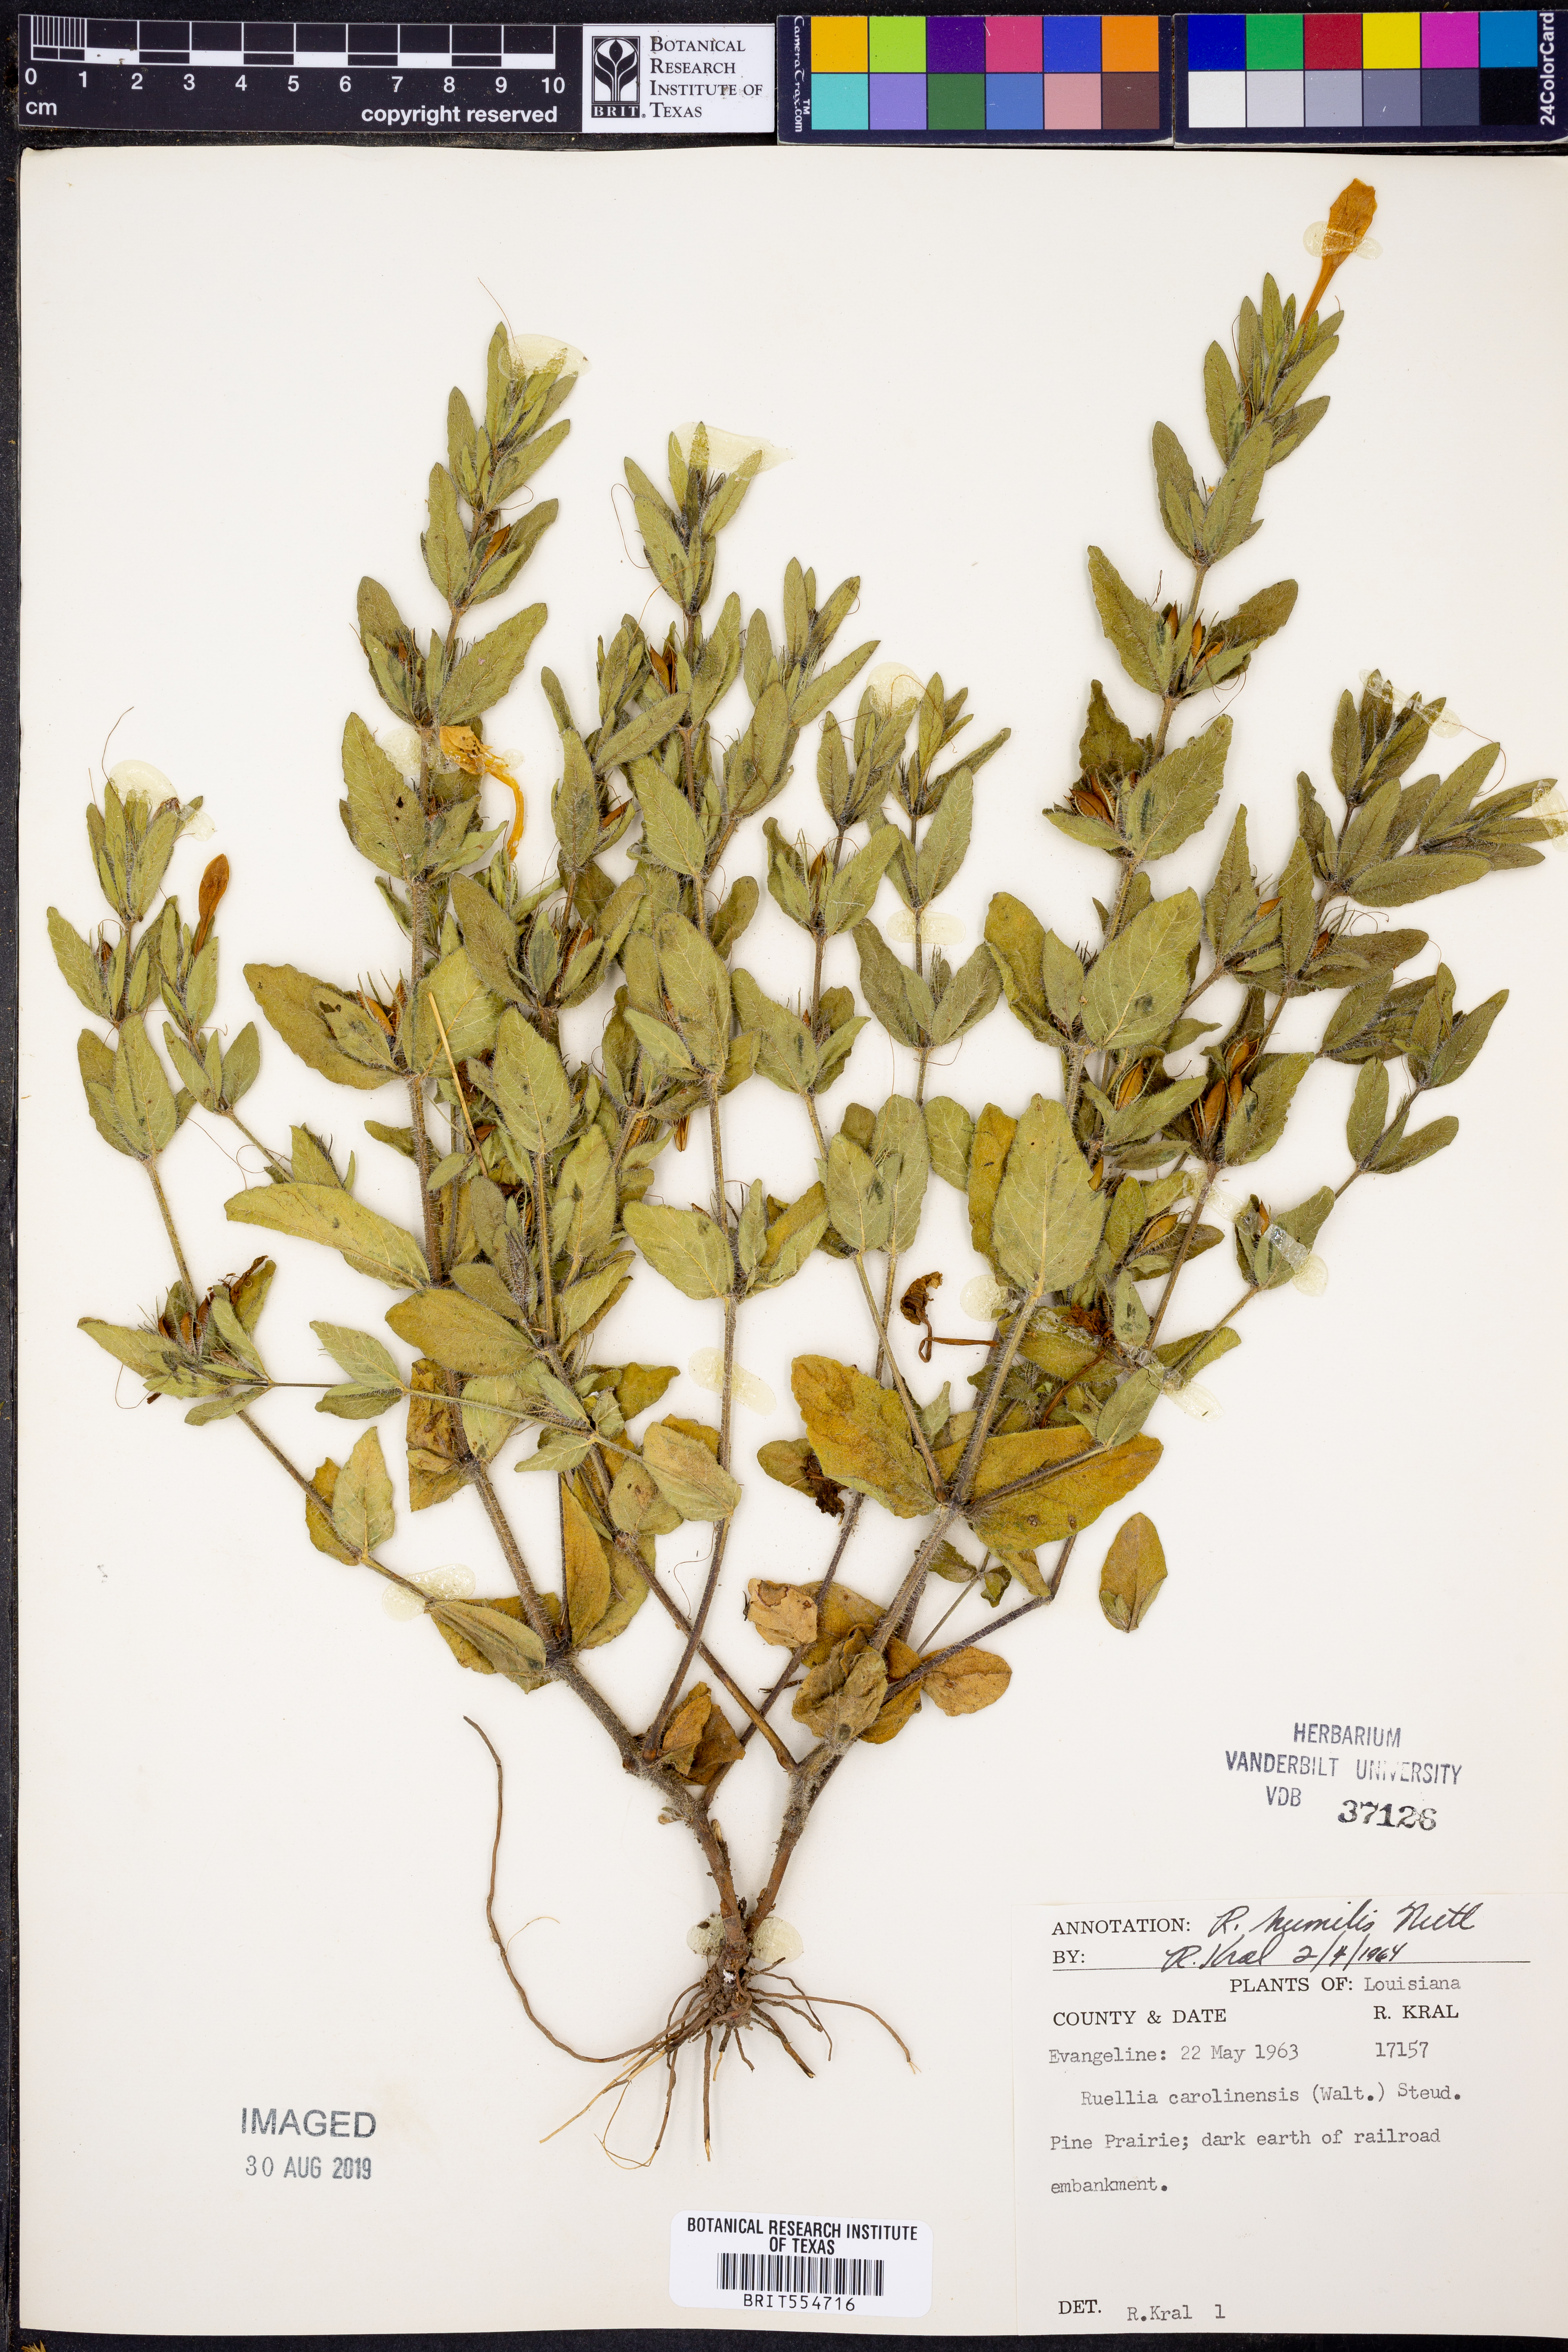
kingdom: Plantae
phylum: Tracheophyta
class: Magnoliopsida
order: Lamiales
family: Acanthaceae
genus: Ruellia
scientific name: Ruellia humilis
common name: Fringe-leaf ruellia
